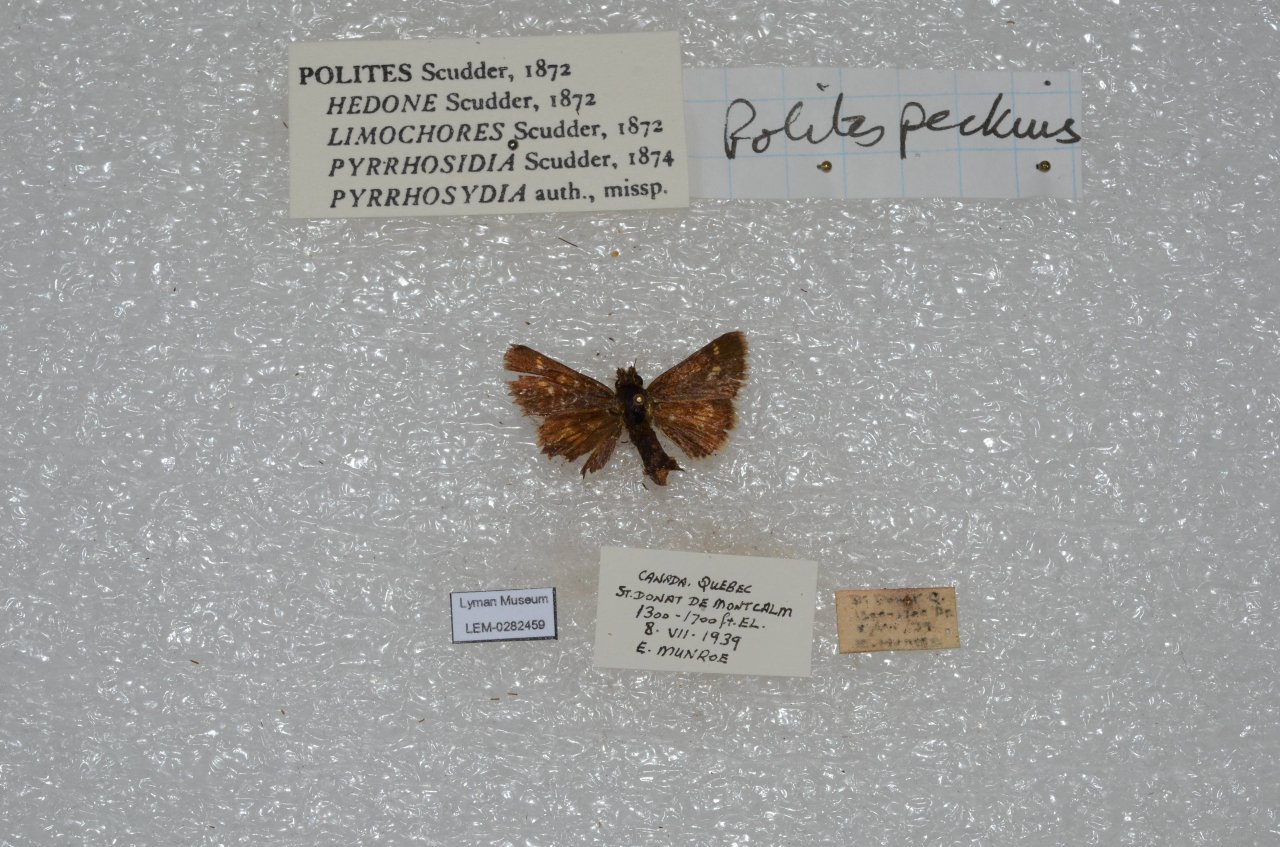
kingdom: Animalia
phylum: Arthropoda
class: Insecta
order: Lepidoptera
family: Hesperiidae
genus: Polites
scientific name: Polites coras
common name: Peck's Skipper
